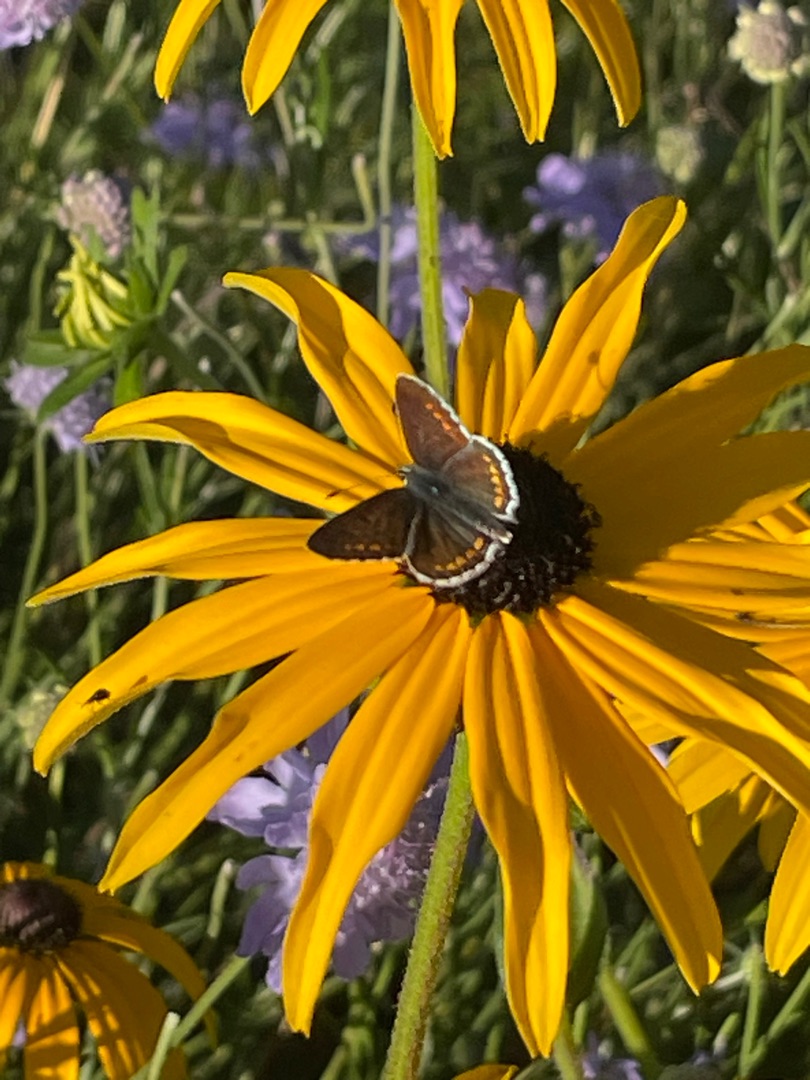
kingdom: Animalia
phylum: Arthropoda
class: Insecta
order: Lepidoptera
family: Lycaenidae
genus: Aricia
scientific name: Aricia agestis
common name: Rødplettet blåfugl
